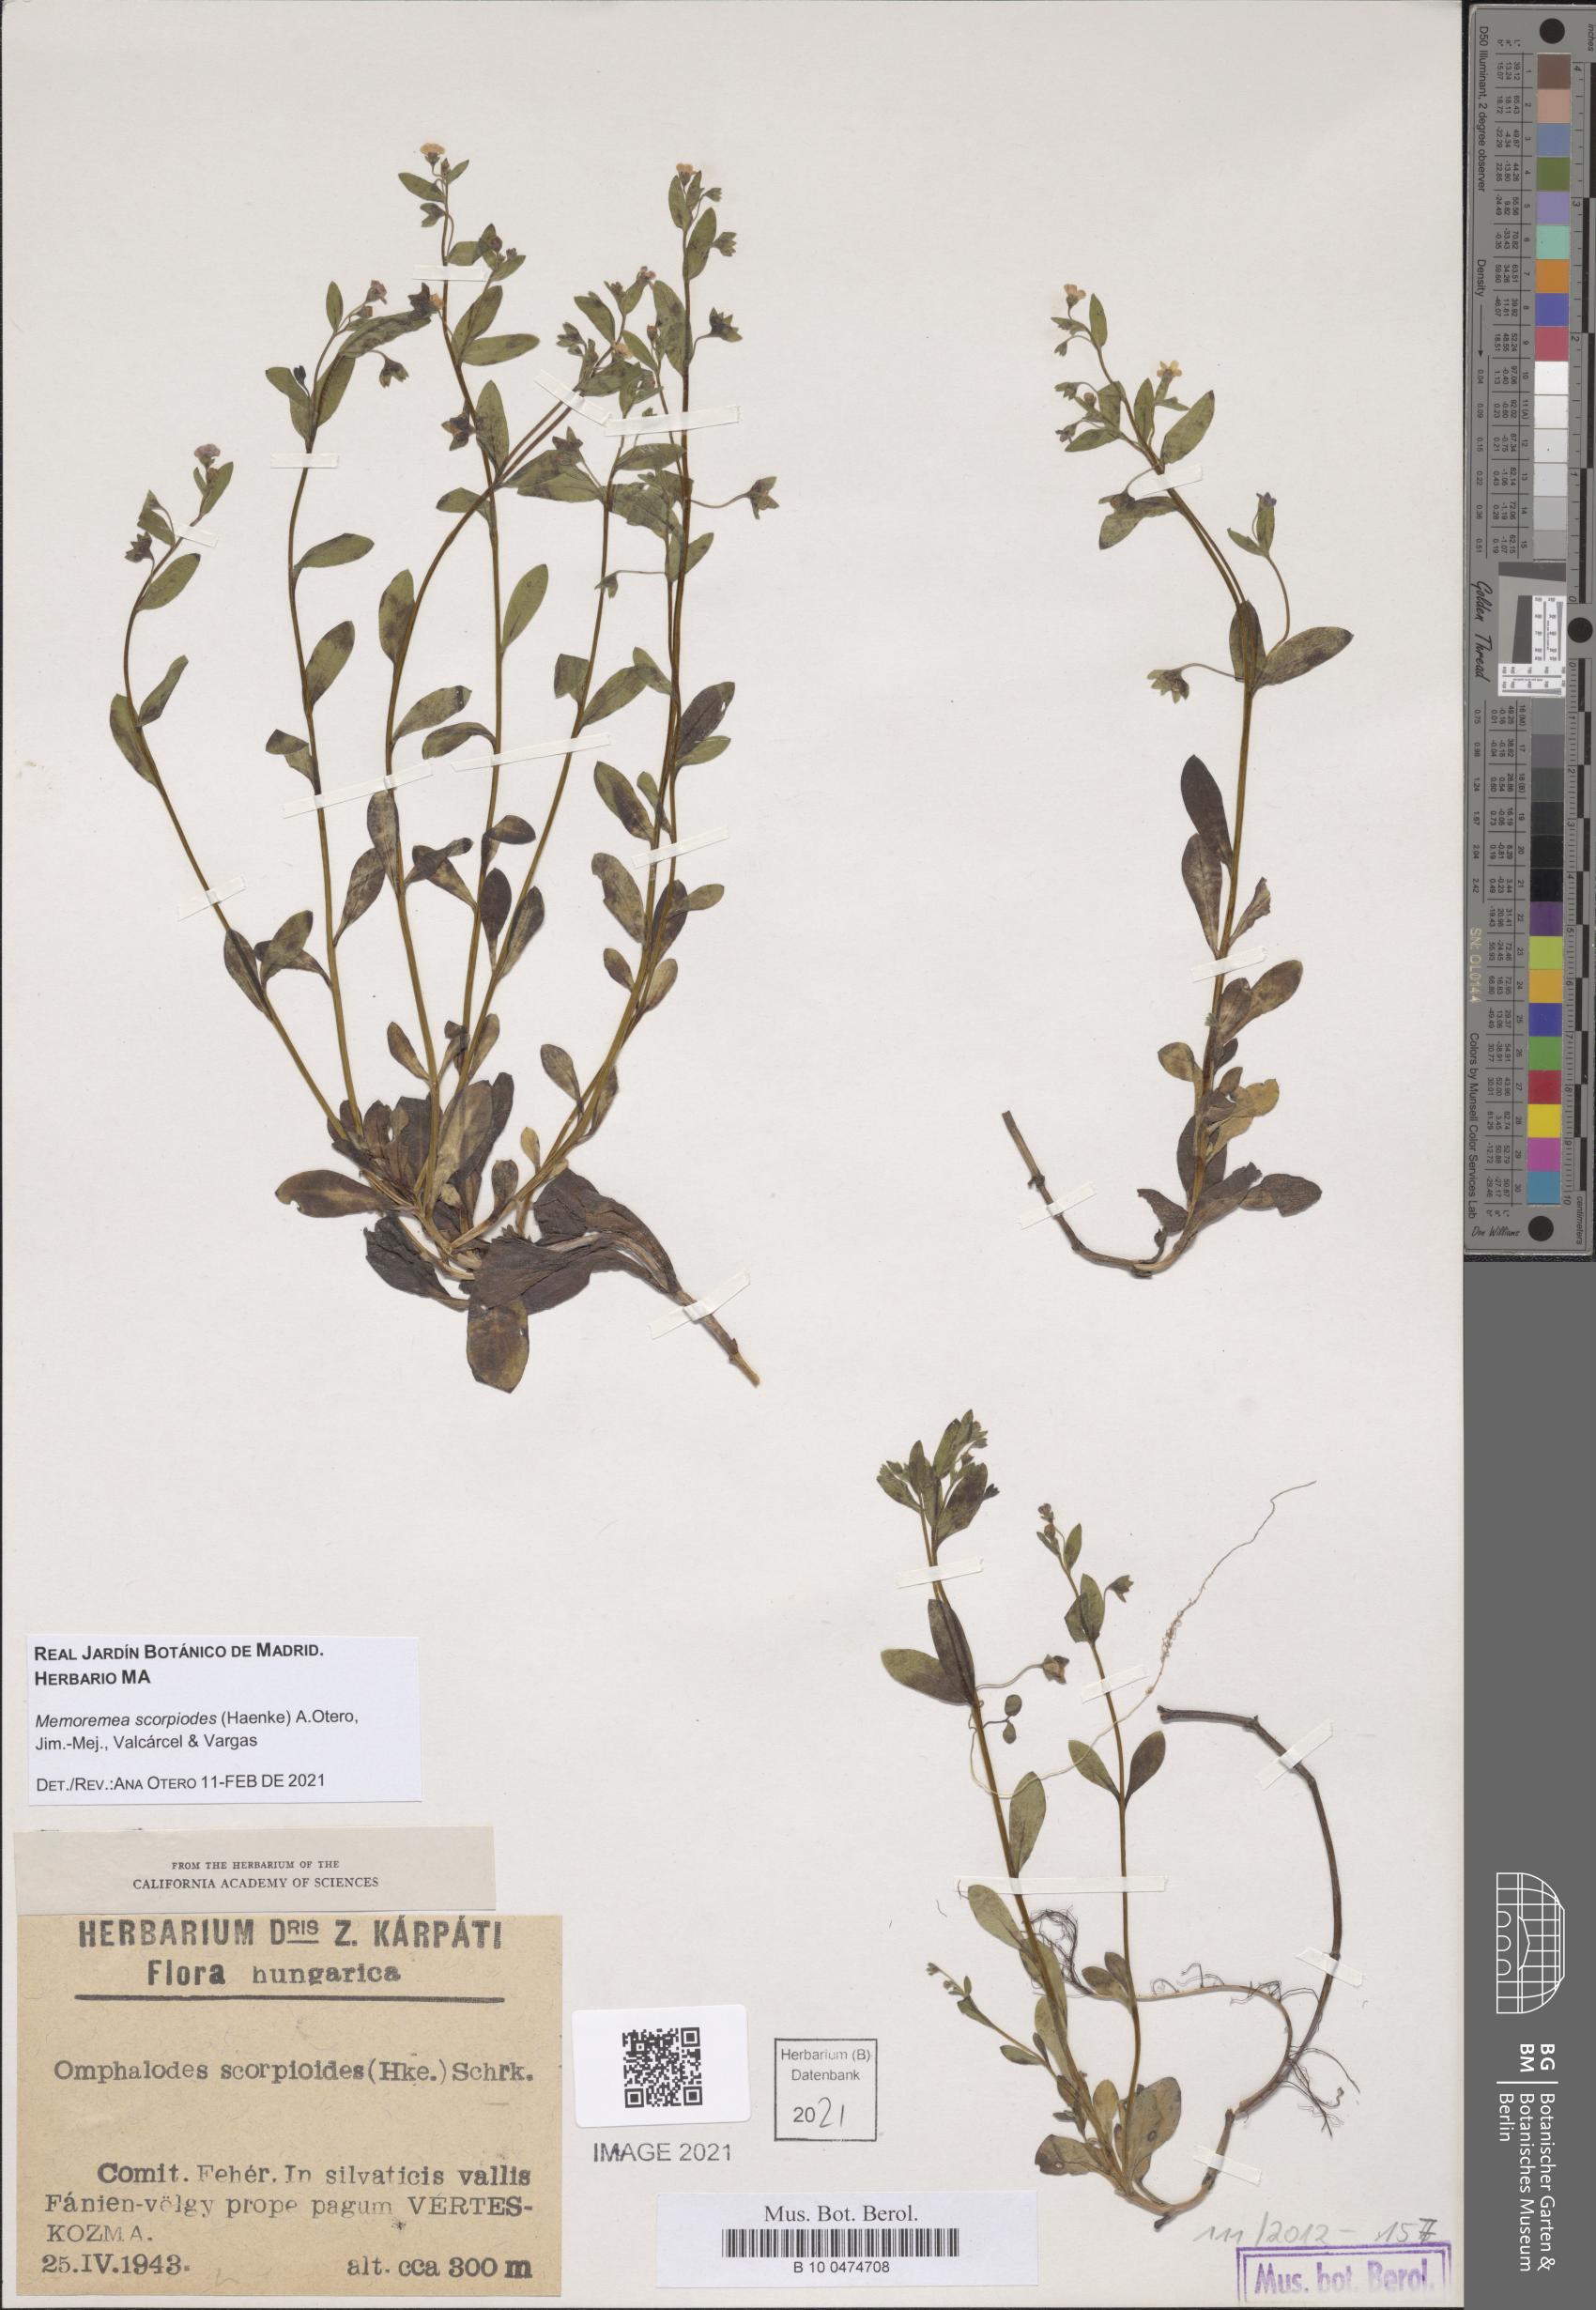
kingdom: Plantae
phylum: Tracheophyta
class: Magnoliopsida
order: Boraginales
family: Boraginaceae
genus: Memoremea
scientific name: Memoremea scorpioides
